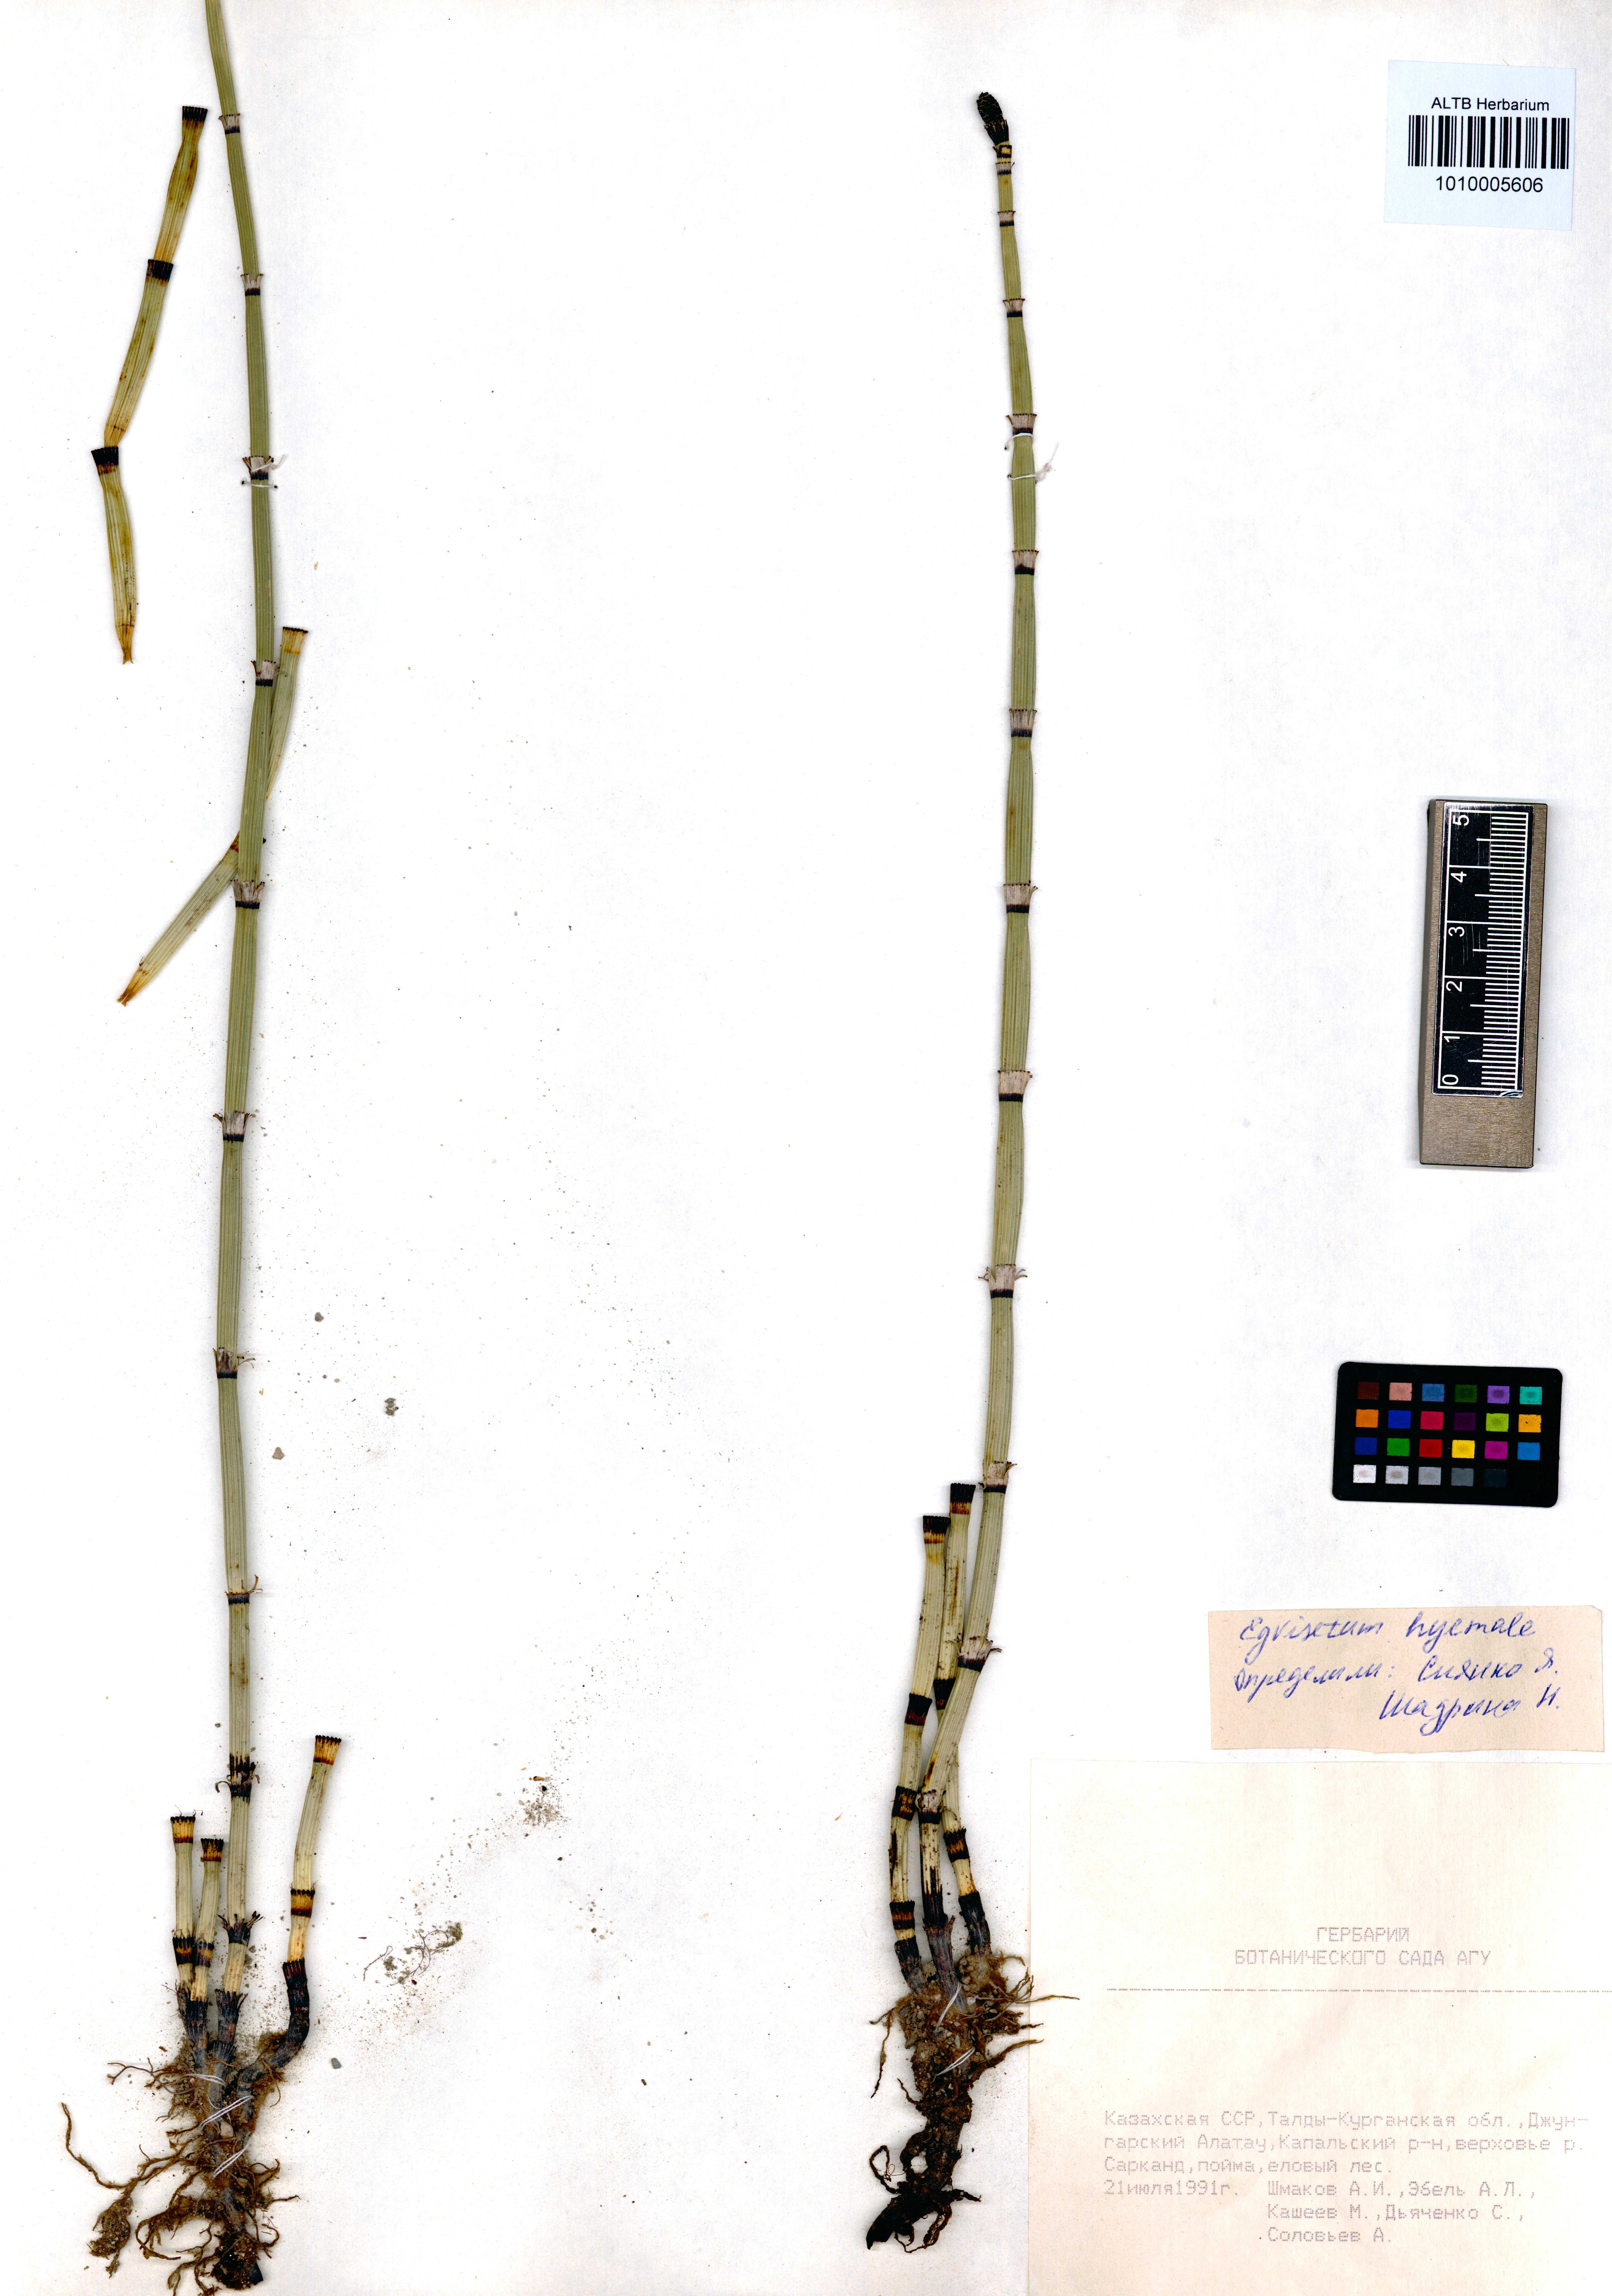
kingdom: Plantae
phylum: Tracheophyta
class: Polypodiopsida
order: Equisetales
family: Equisetaceae
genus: Equisetum
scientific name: Equisetum hyemale
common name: Rough horsetail
